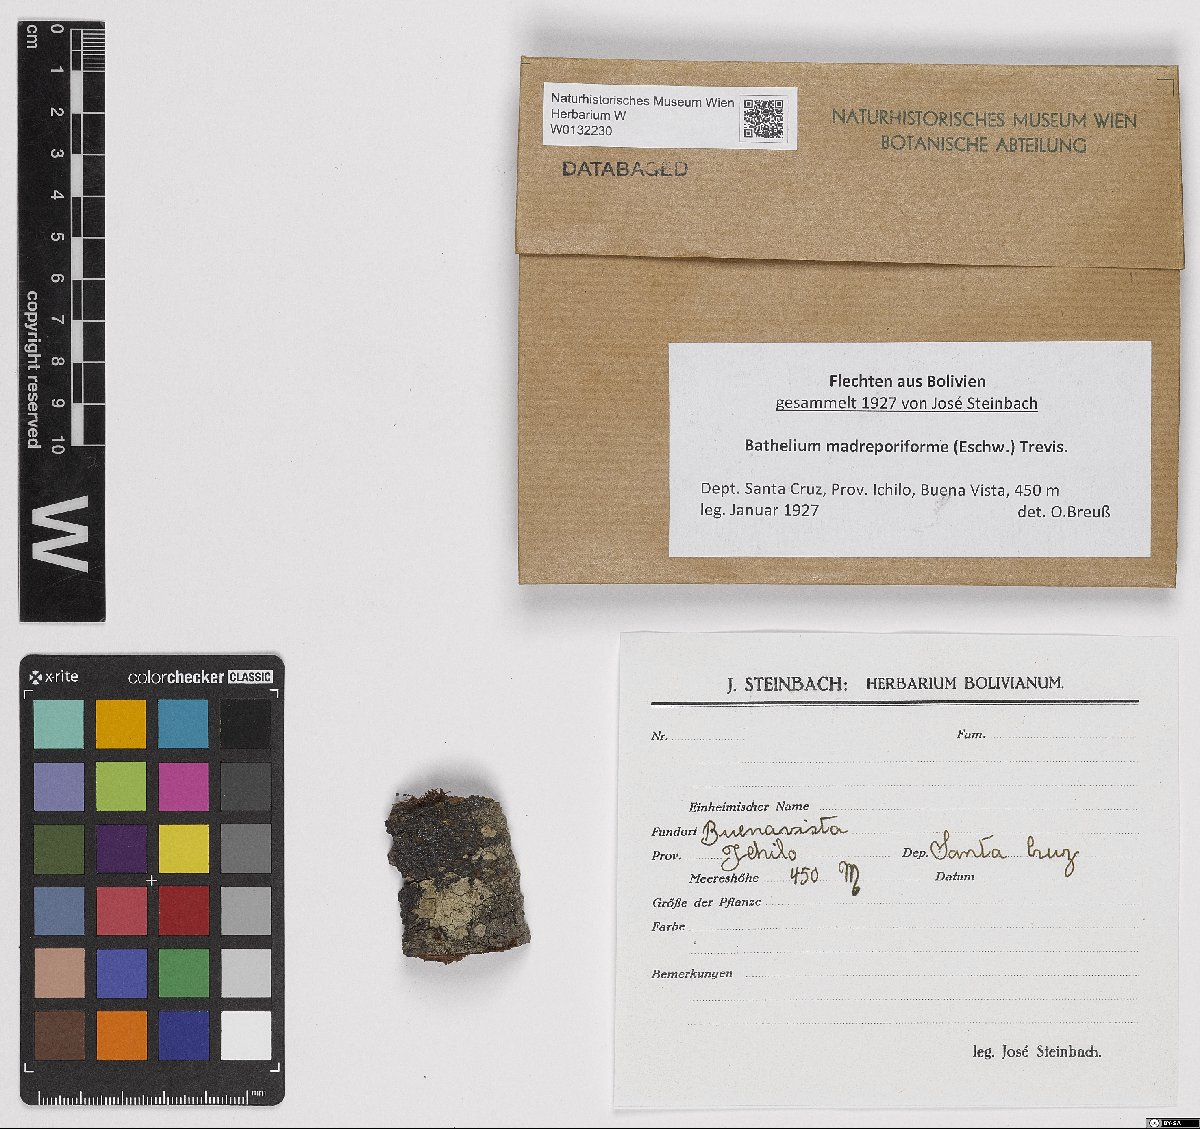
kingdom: Fungi
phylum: Ascomycota
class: Dothideomycetes
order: Trypetheliales
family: Trypetheliaceae
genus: Bathelium
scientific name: Bathelium madreporiforme
